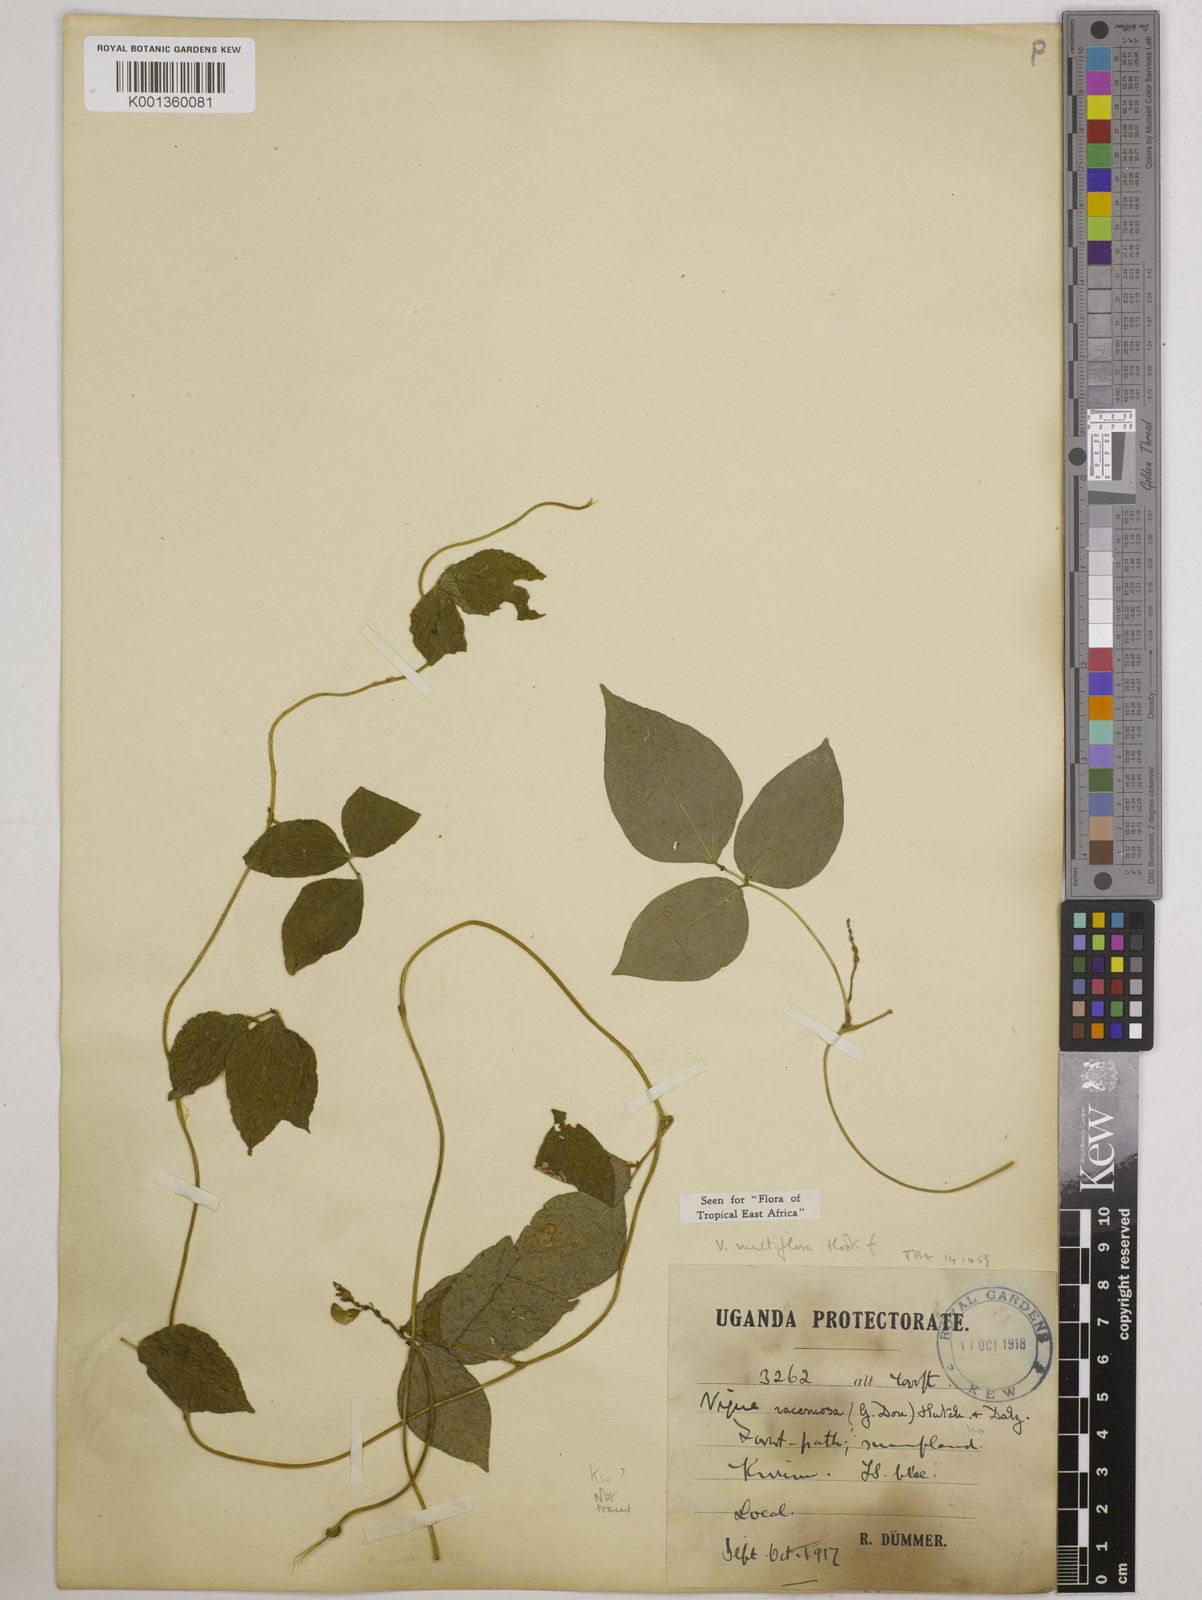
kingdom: Plantae
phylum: Tracheophyta
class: Magnoliopsida
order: Fabales
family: Fabaceae
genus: Vigna
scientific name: Vigna gracilis
